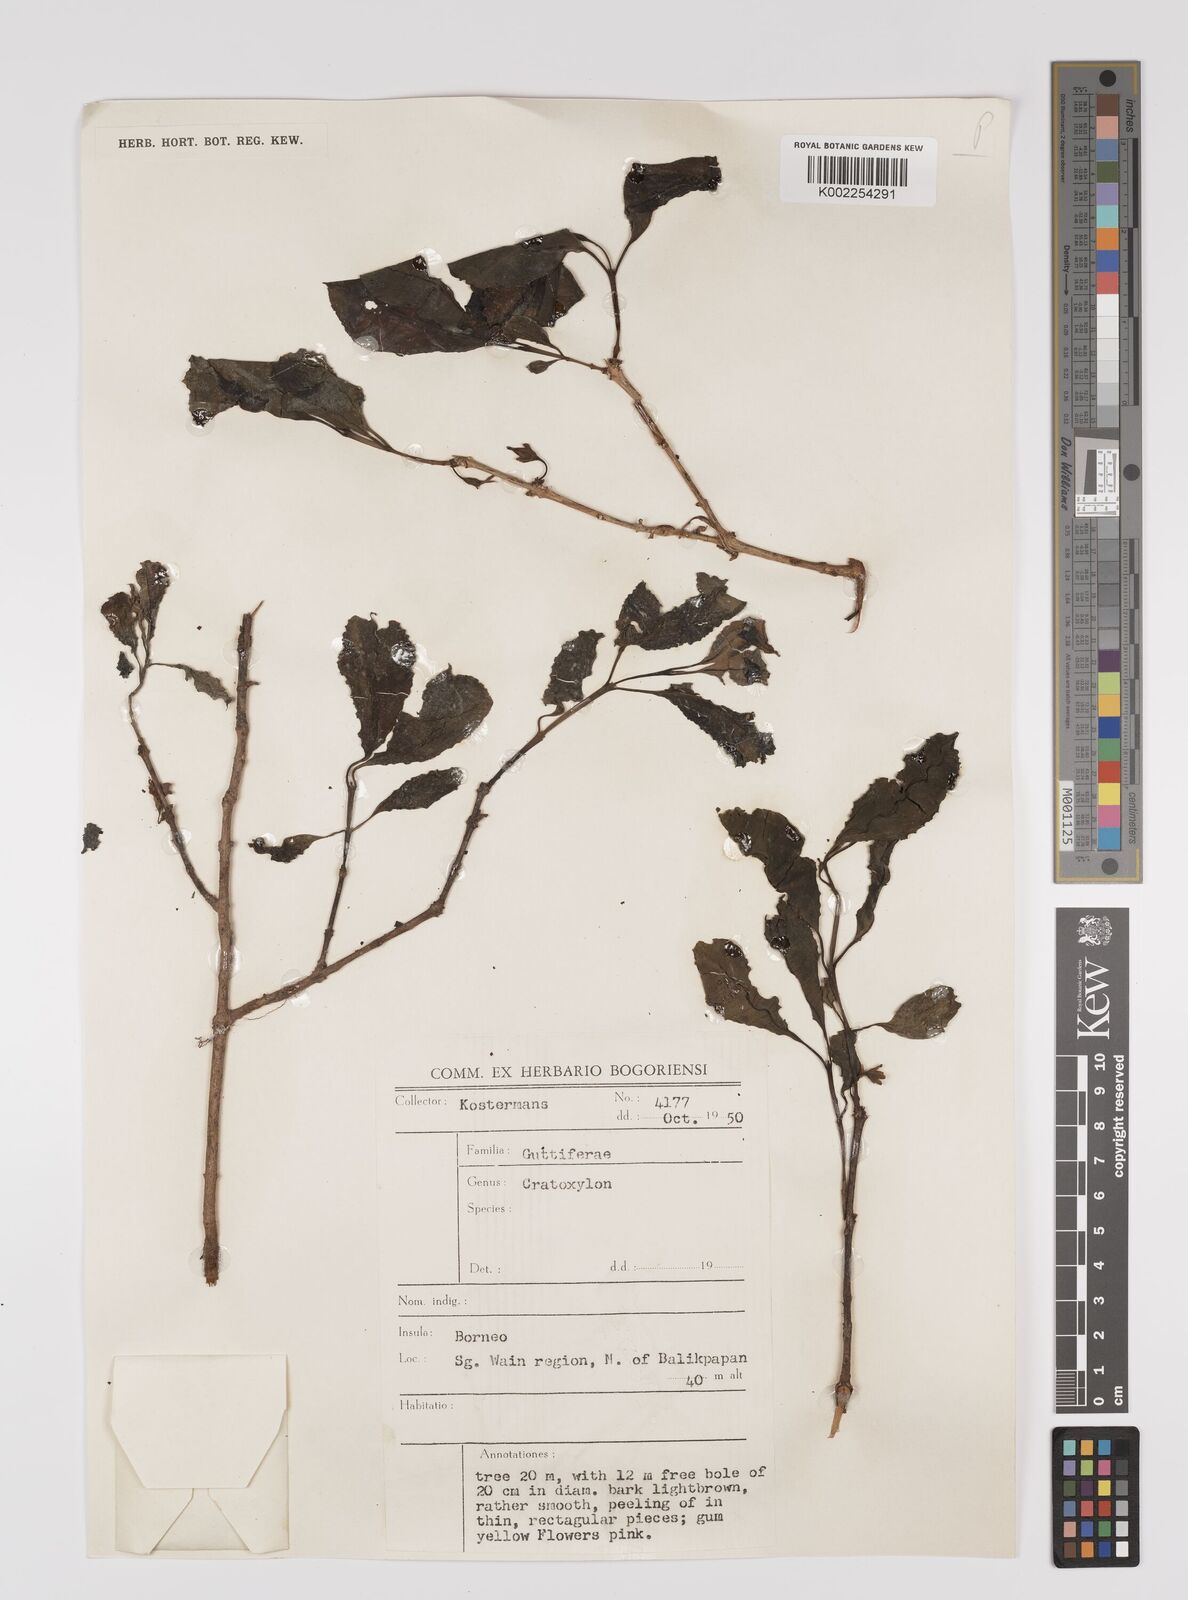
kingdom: Plantae
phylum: Tracheophyta
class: Magnoliopsida
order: Malpighiales
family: Hypericaceae
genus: Cratoxylum
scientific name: Cratoxylum
